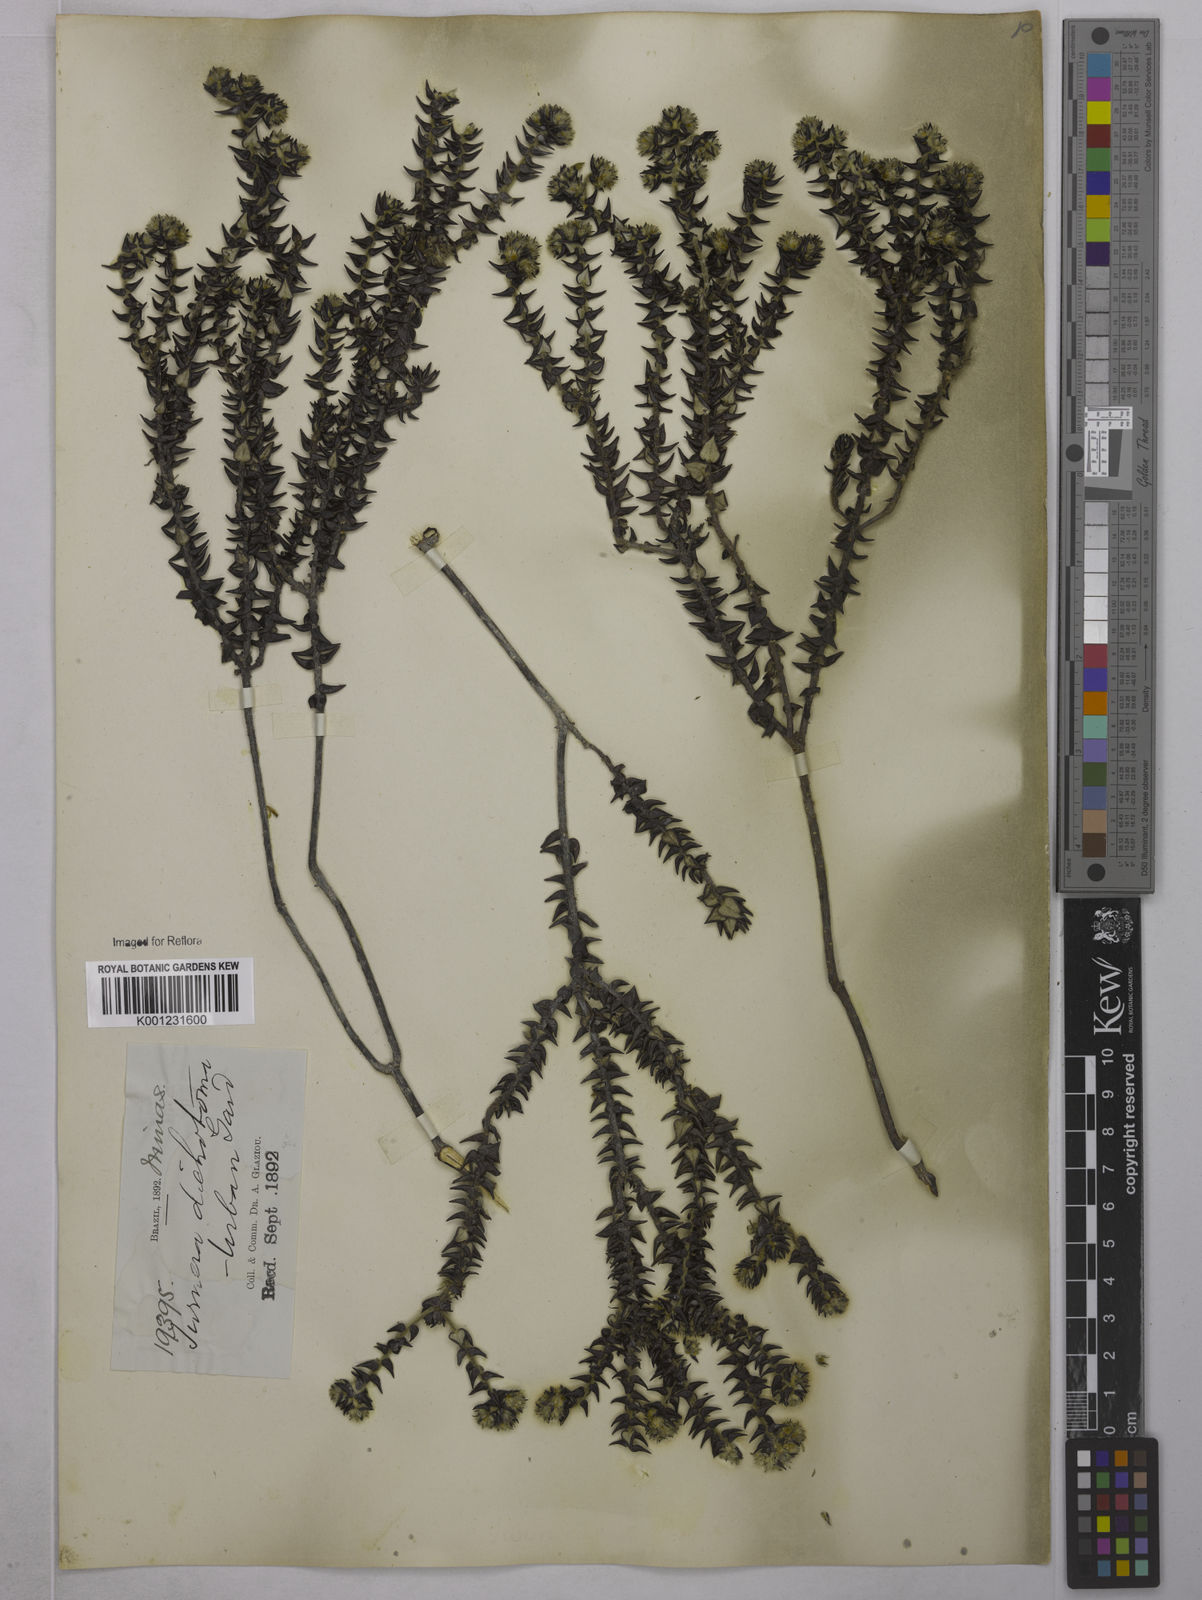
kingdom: Plantae
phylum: Tracheophyta
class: Magnoliopsida
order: Malpighiales
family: Turneraceae
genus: Turnera
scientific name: Turnera
